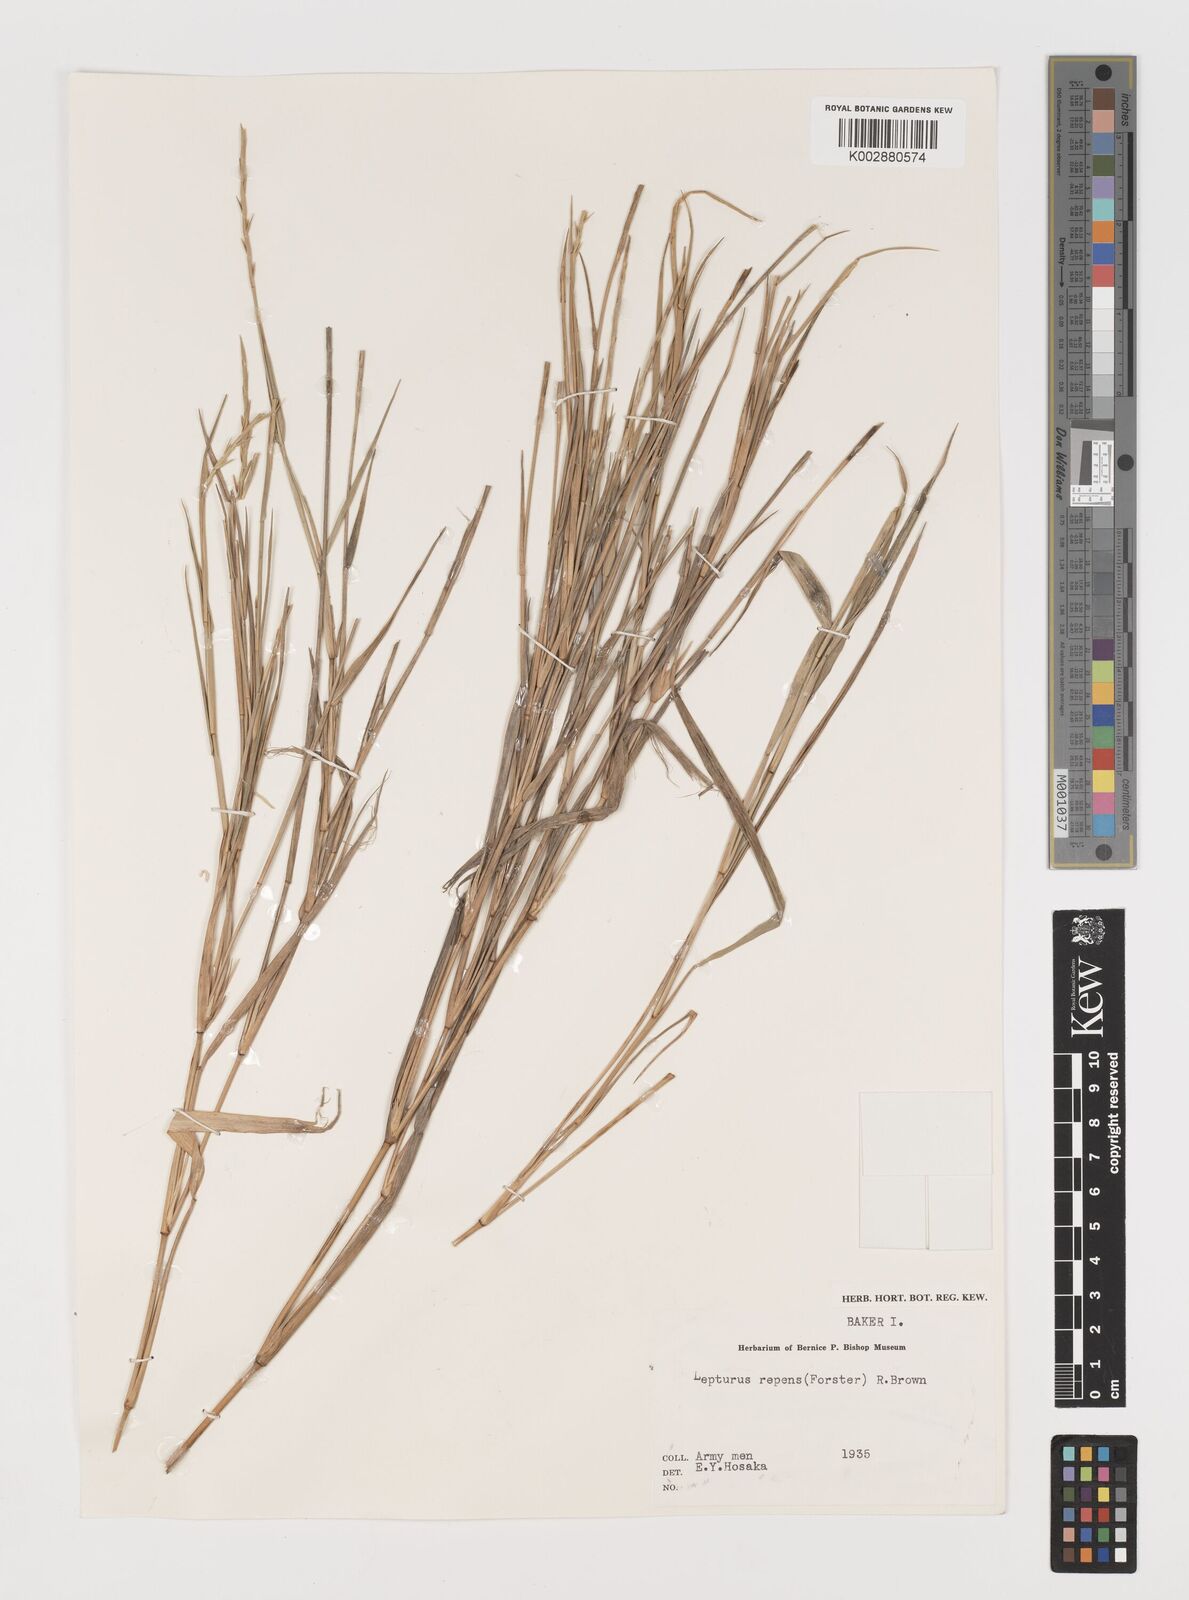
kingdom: Plantae
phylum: Tracheophyta
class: Liliopsida
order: Poales
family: Poaceae
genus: Lepturus
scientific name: Lepturus repens
